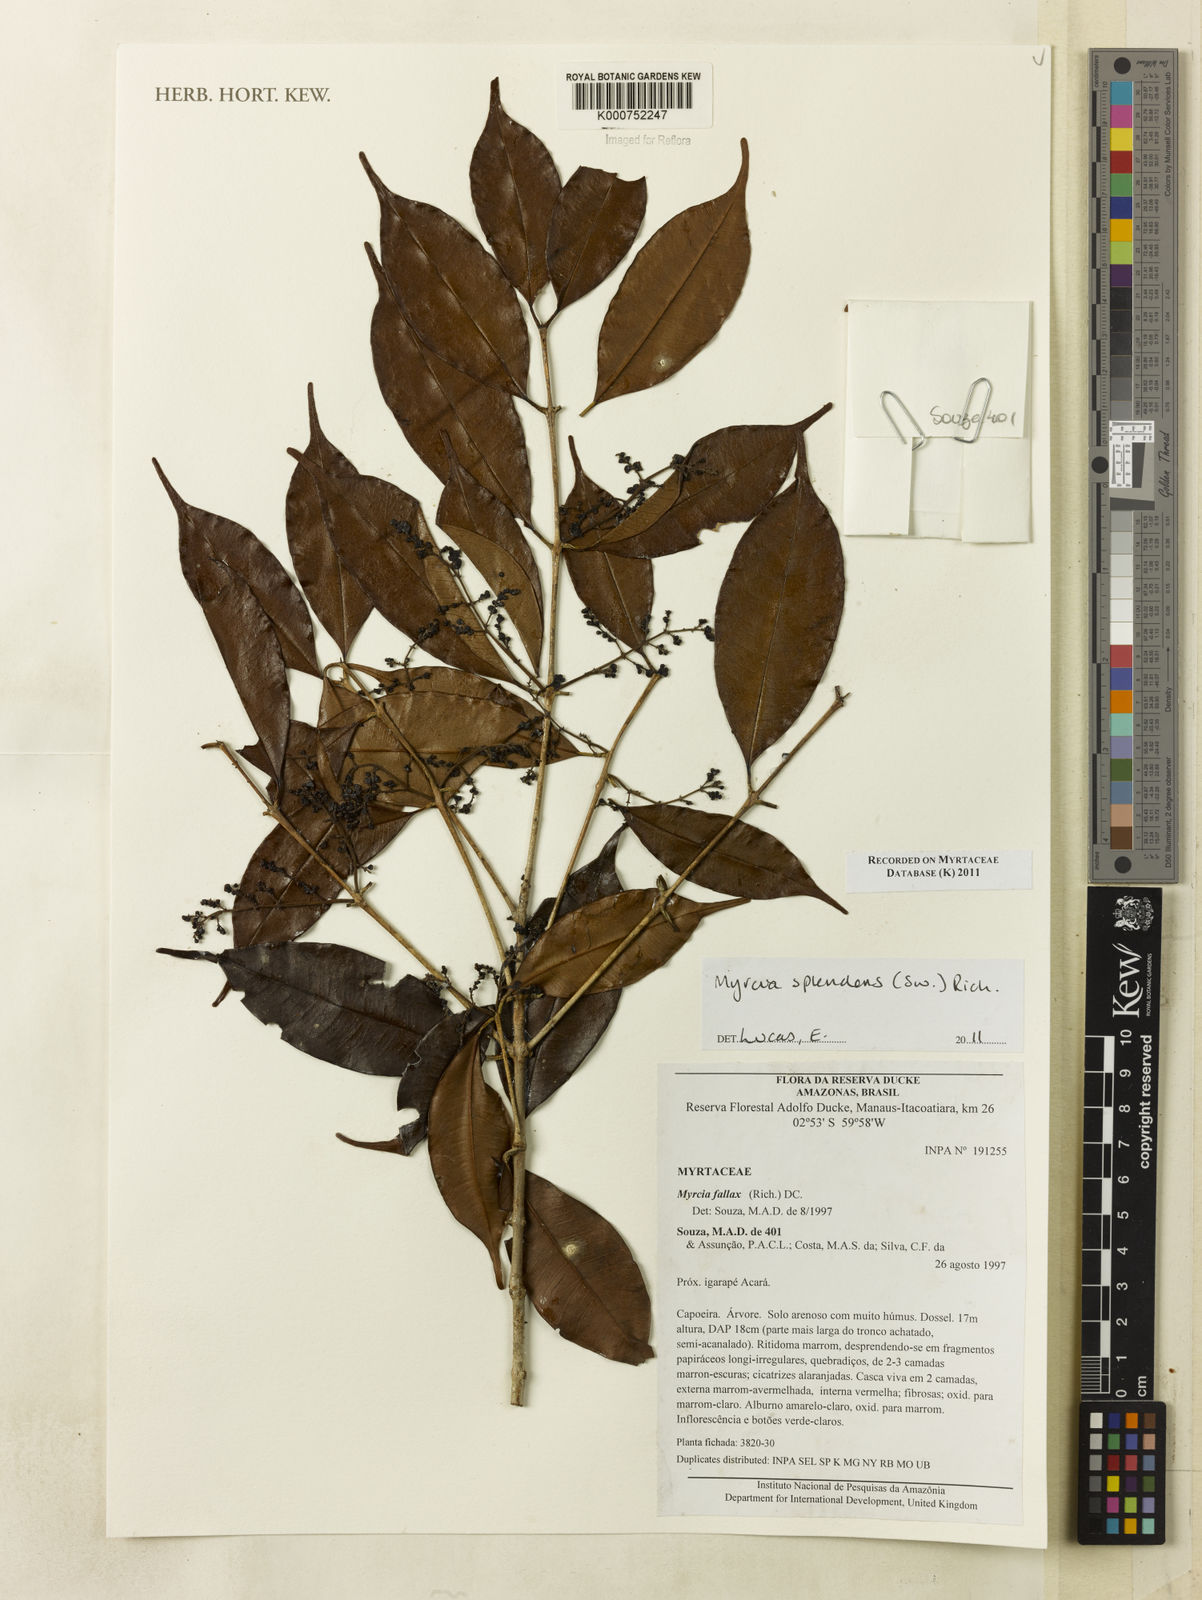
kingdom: Plantae
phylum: Tracheophyta
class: Magnoliopsida
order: Myrtales
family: Myrtaceae
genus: Myrcia
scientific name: Myrcia splendens
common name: Surinam cherry
